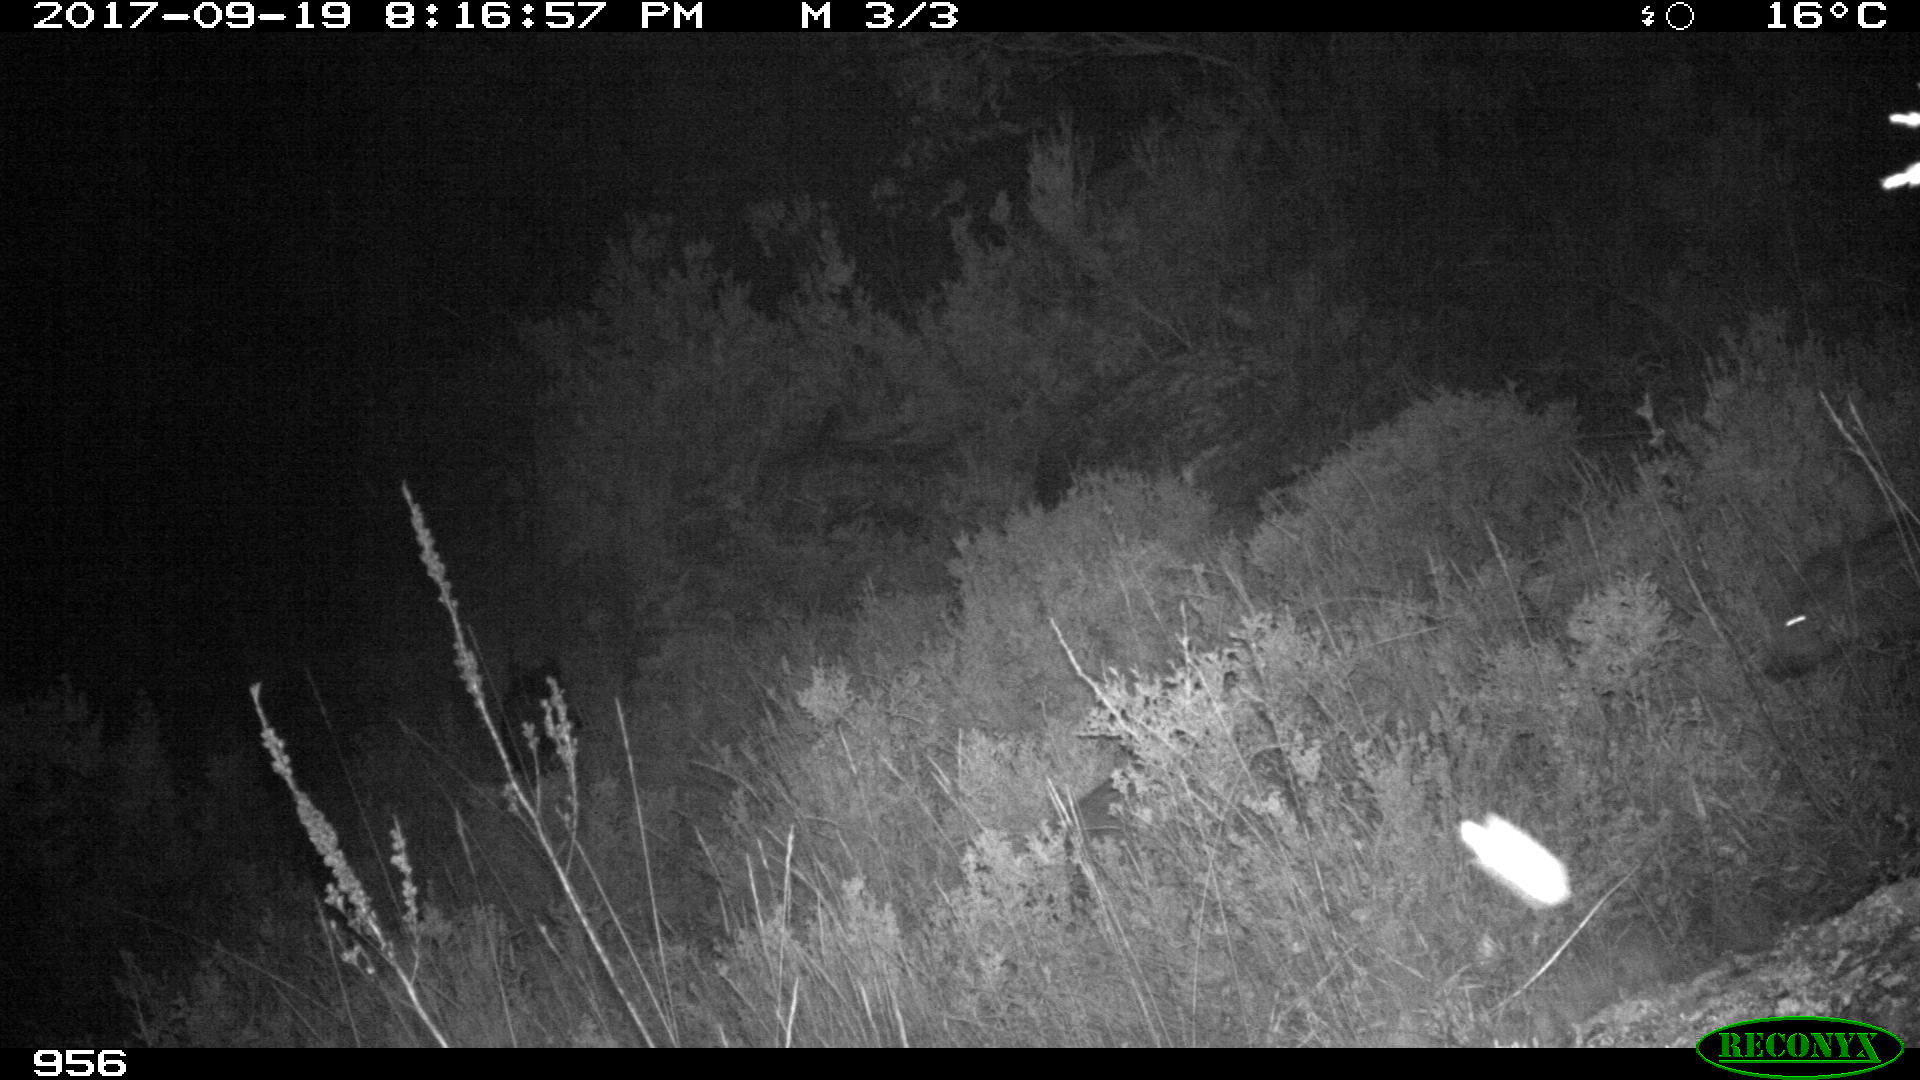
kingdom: Animalia
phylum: Chordata
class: Mammalia
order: Artiodactyla
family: Suidae
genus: Sus
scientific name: Sus scrofa
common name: Wild boar
